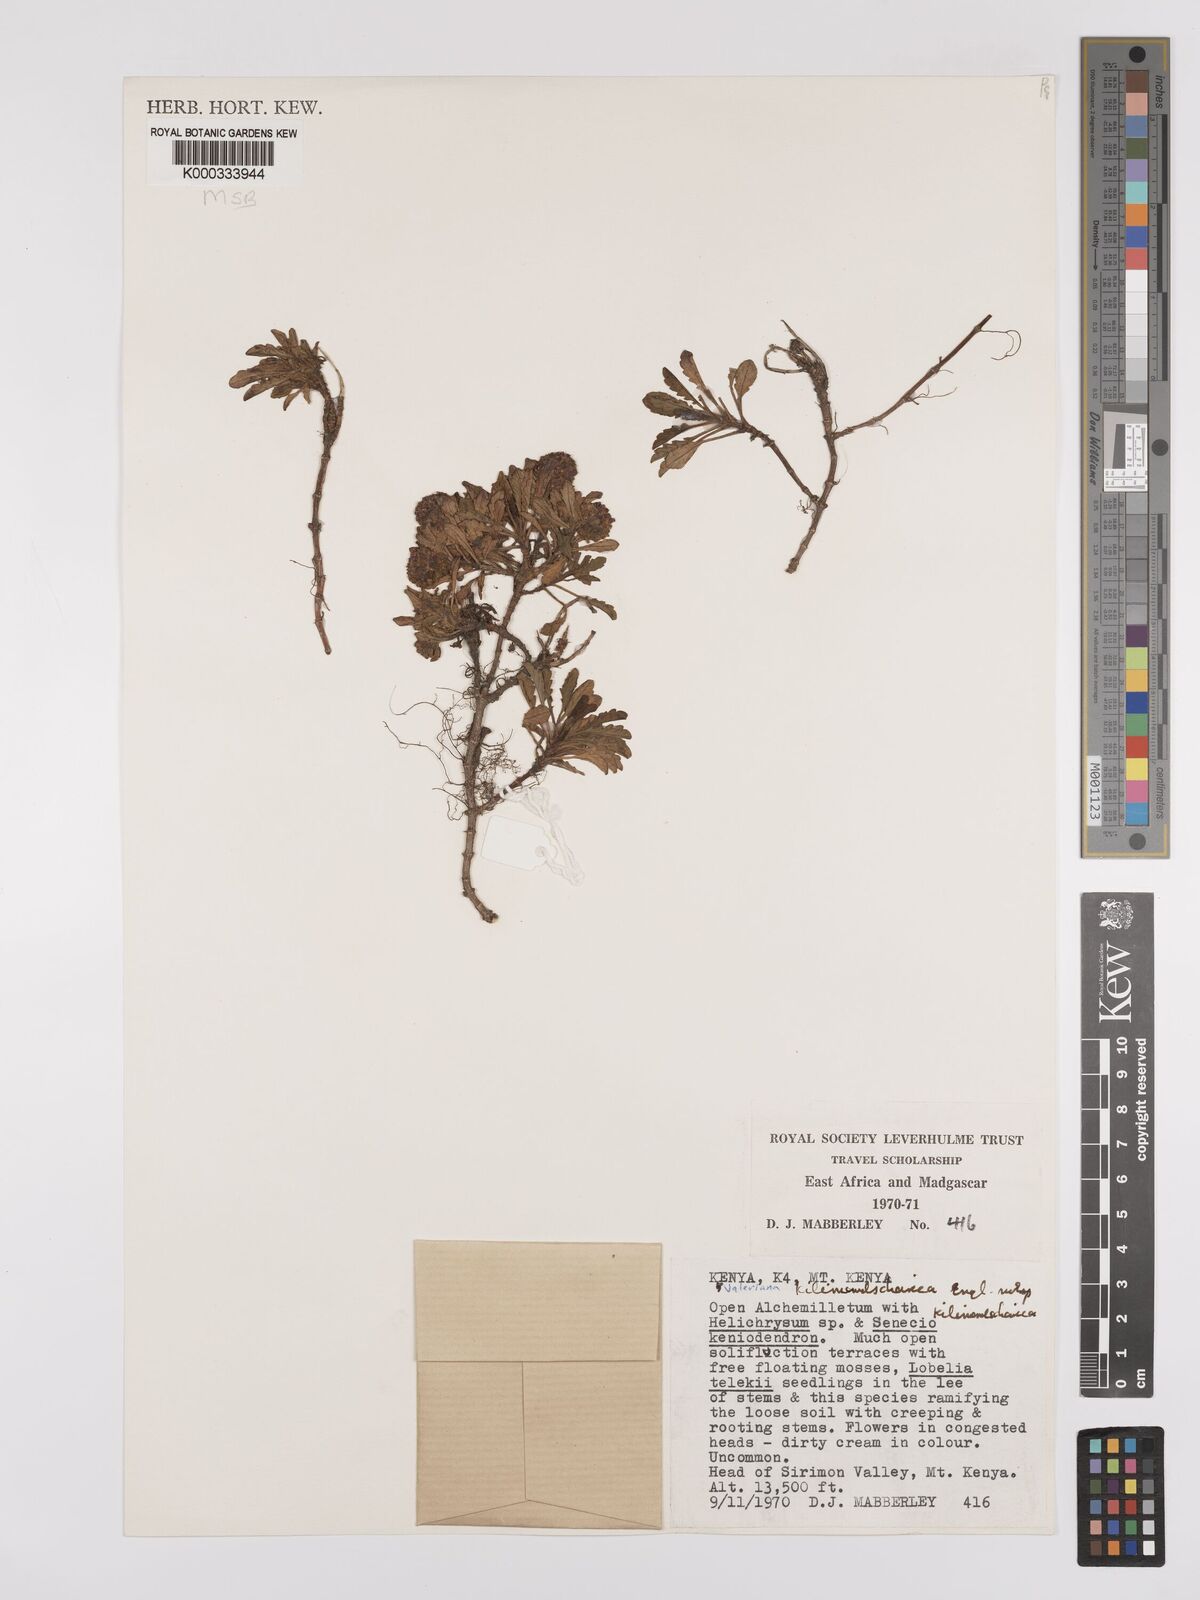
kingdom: Plantae
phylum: Tracheophyta
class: Magnoliopsida
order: Dipsacales
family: Caprifoliaceae
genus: Valeriana
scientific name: Valeriana kilimandscharica
